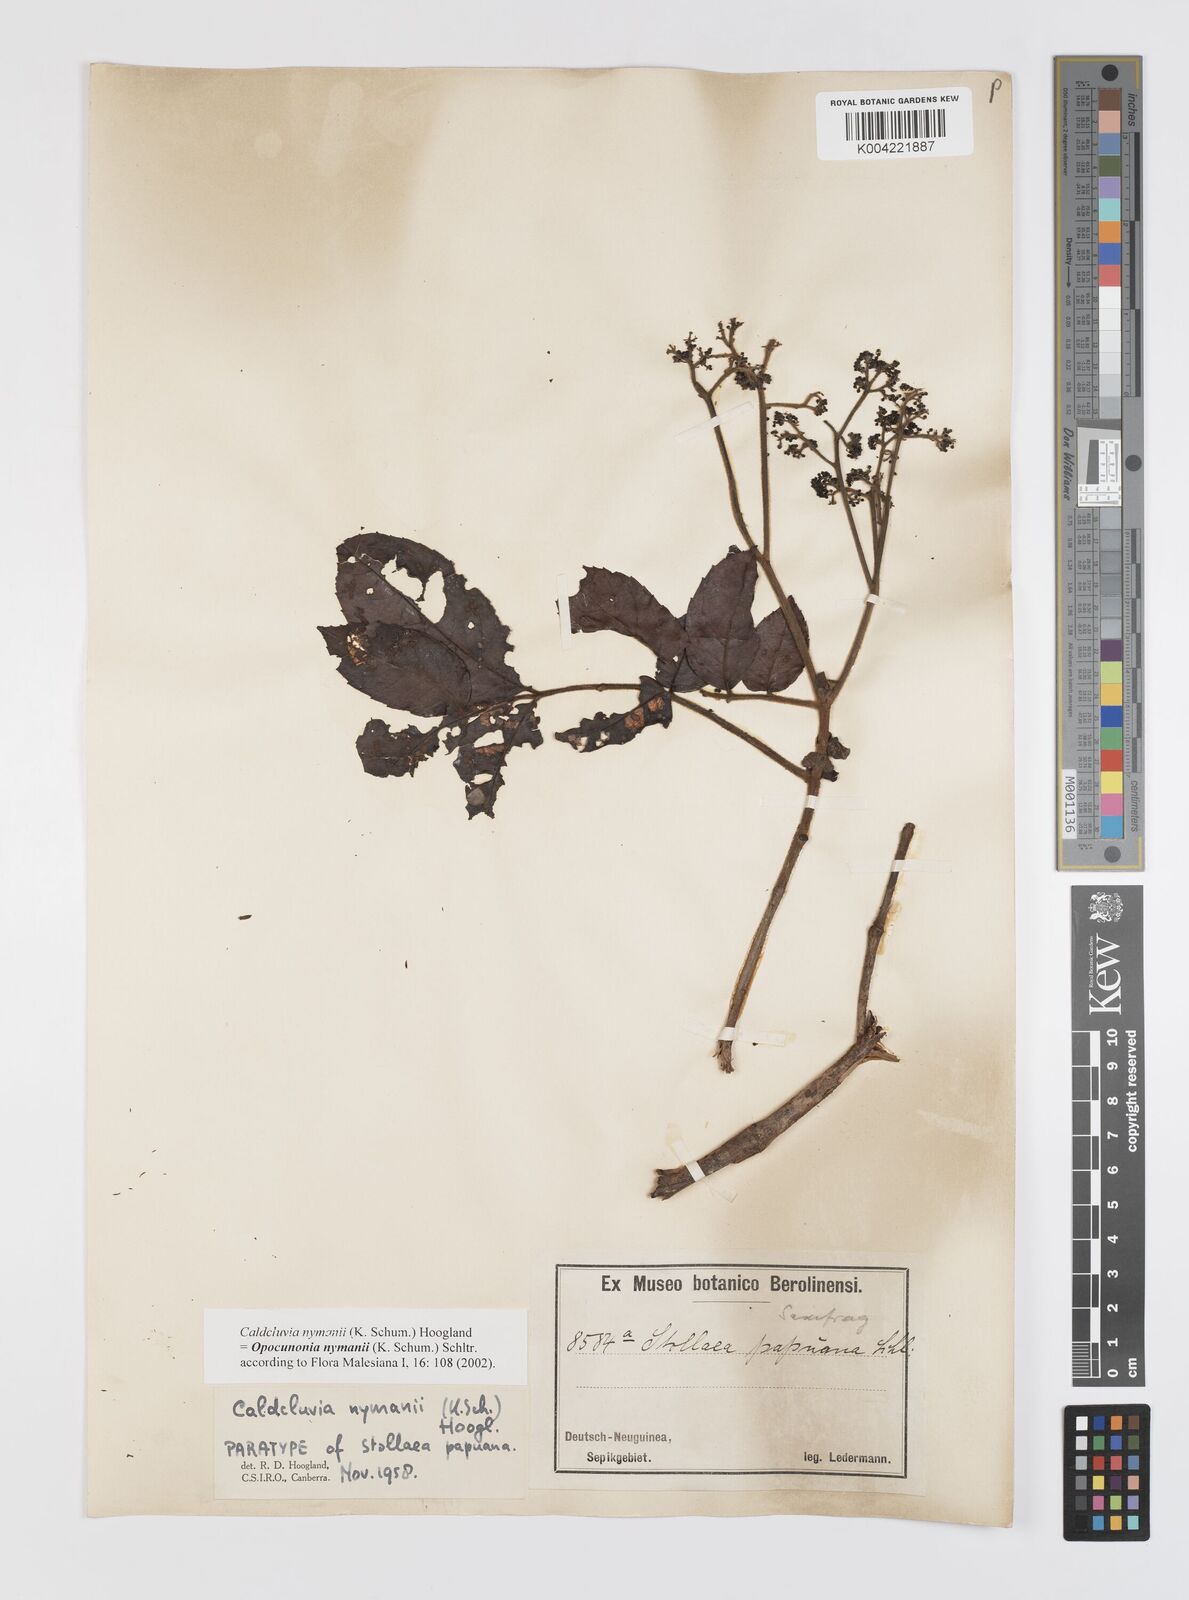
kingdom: Plantae
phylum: Tracheophyta
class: Magnoliopsida
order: Oxalidales
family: Cunoniaceae
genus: Opocunonia
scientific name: Opocunonia nymanii
